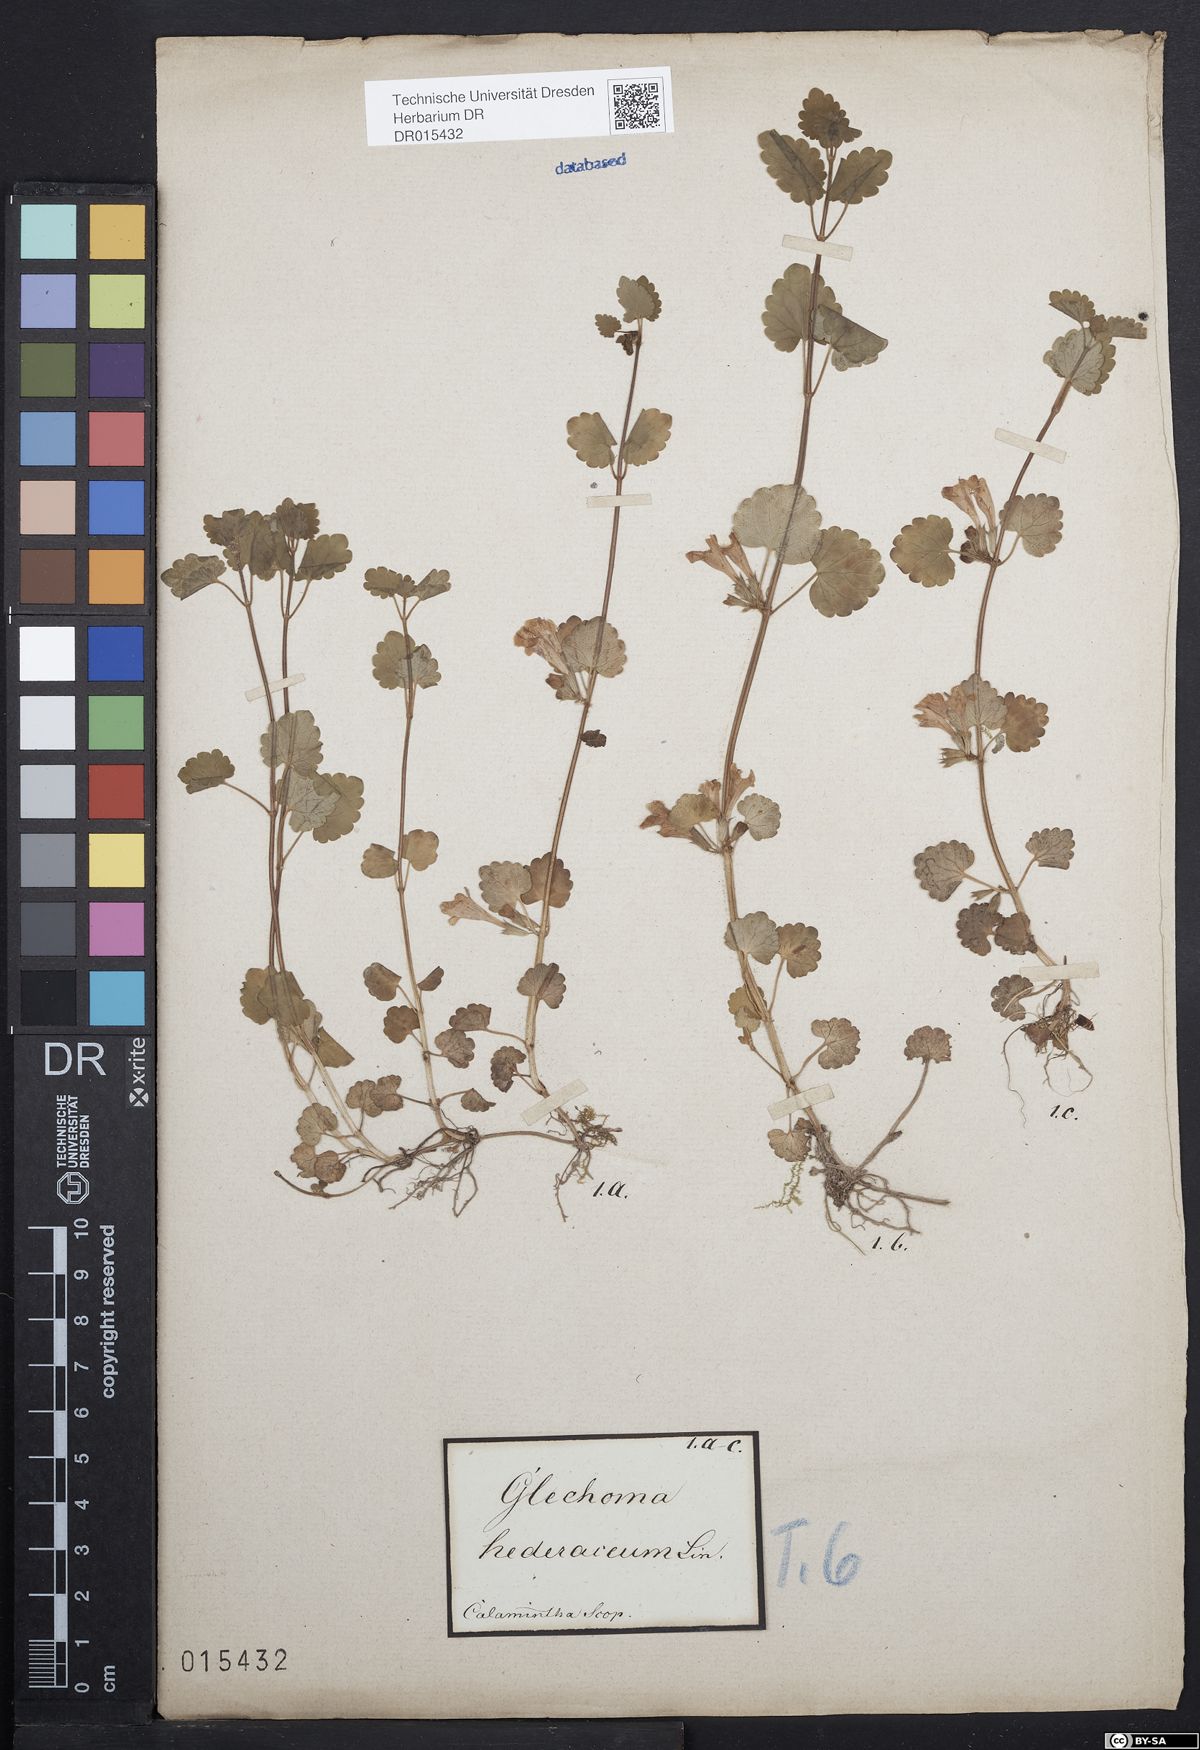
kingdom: Plantae
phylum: Tracheophyta
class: Magnoliopsida
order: Lamiales
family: Lamiaceae
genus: Glechoma
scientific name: Glechoma hederacea
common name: Ground ivy
